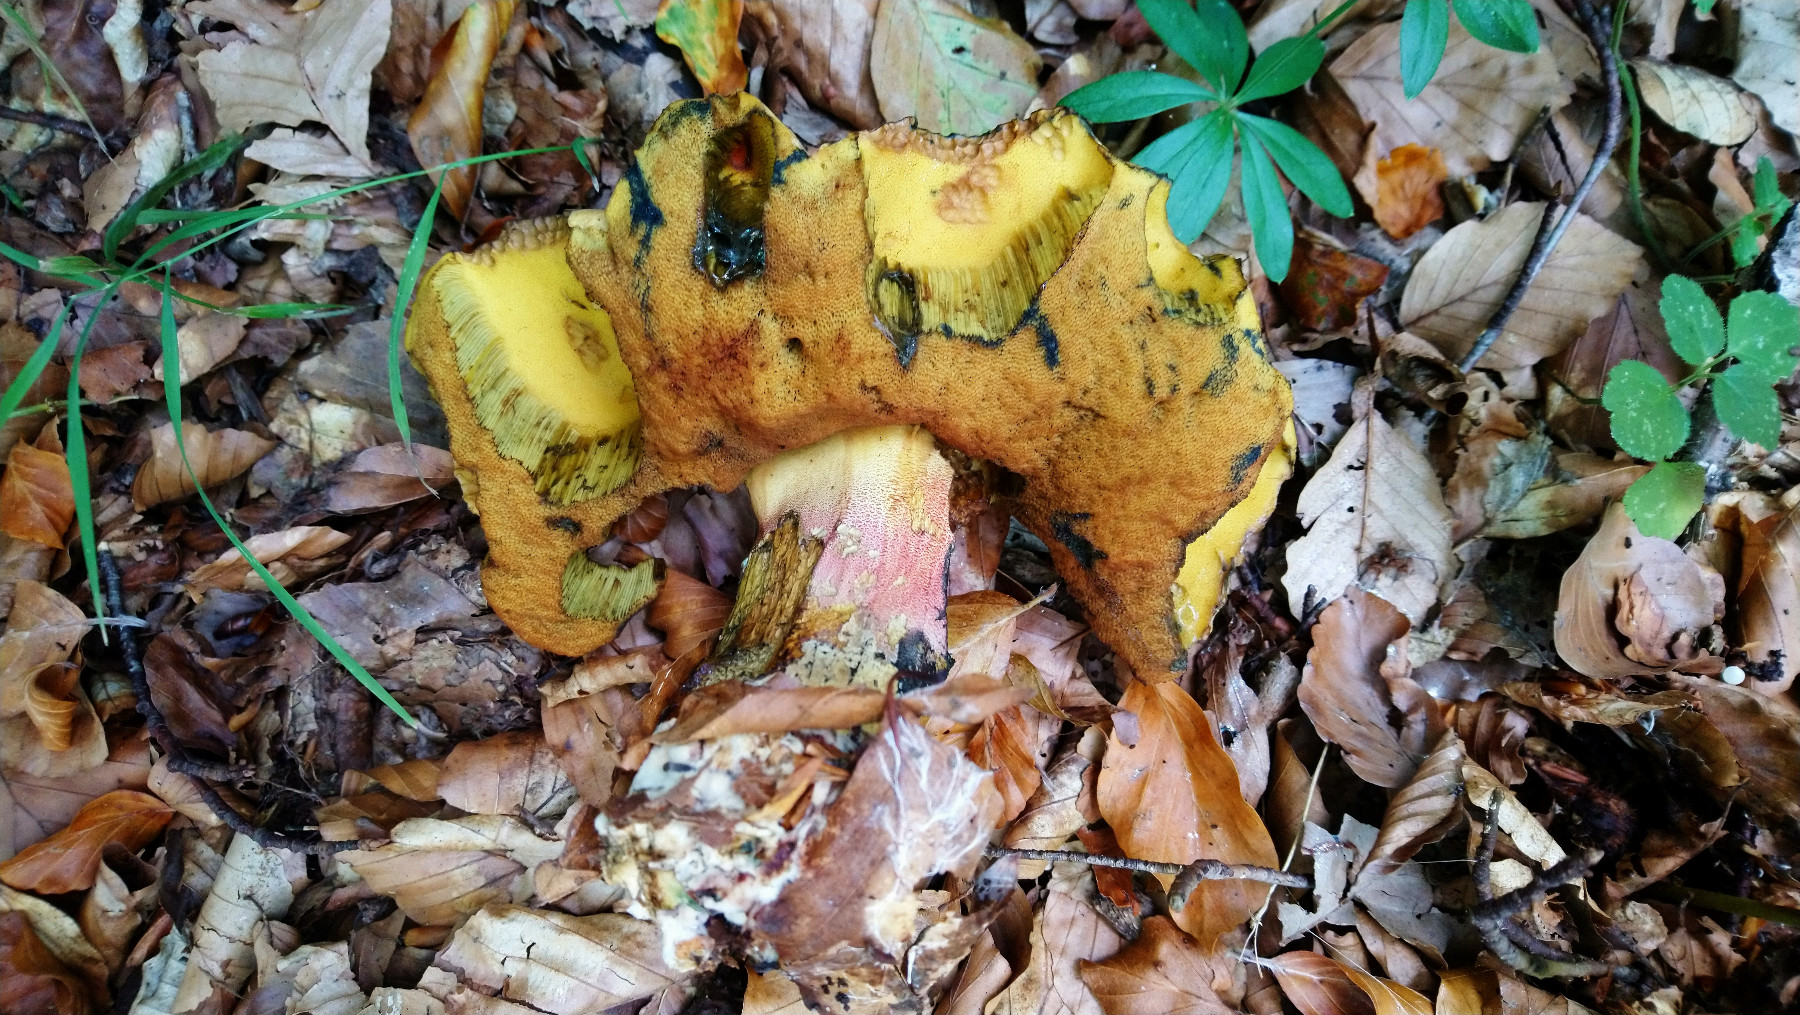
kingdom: Fungi
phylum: Basidiomycota
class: Agaricomycetes
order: Boletales
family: Boletaceae
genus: Neoboletus
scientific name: Neoboletus erythropus
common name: punktstokket indigorørhat
